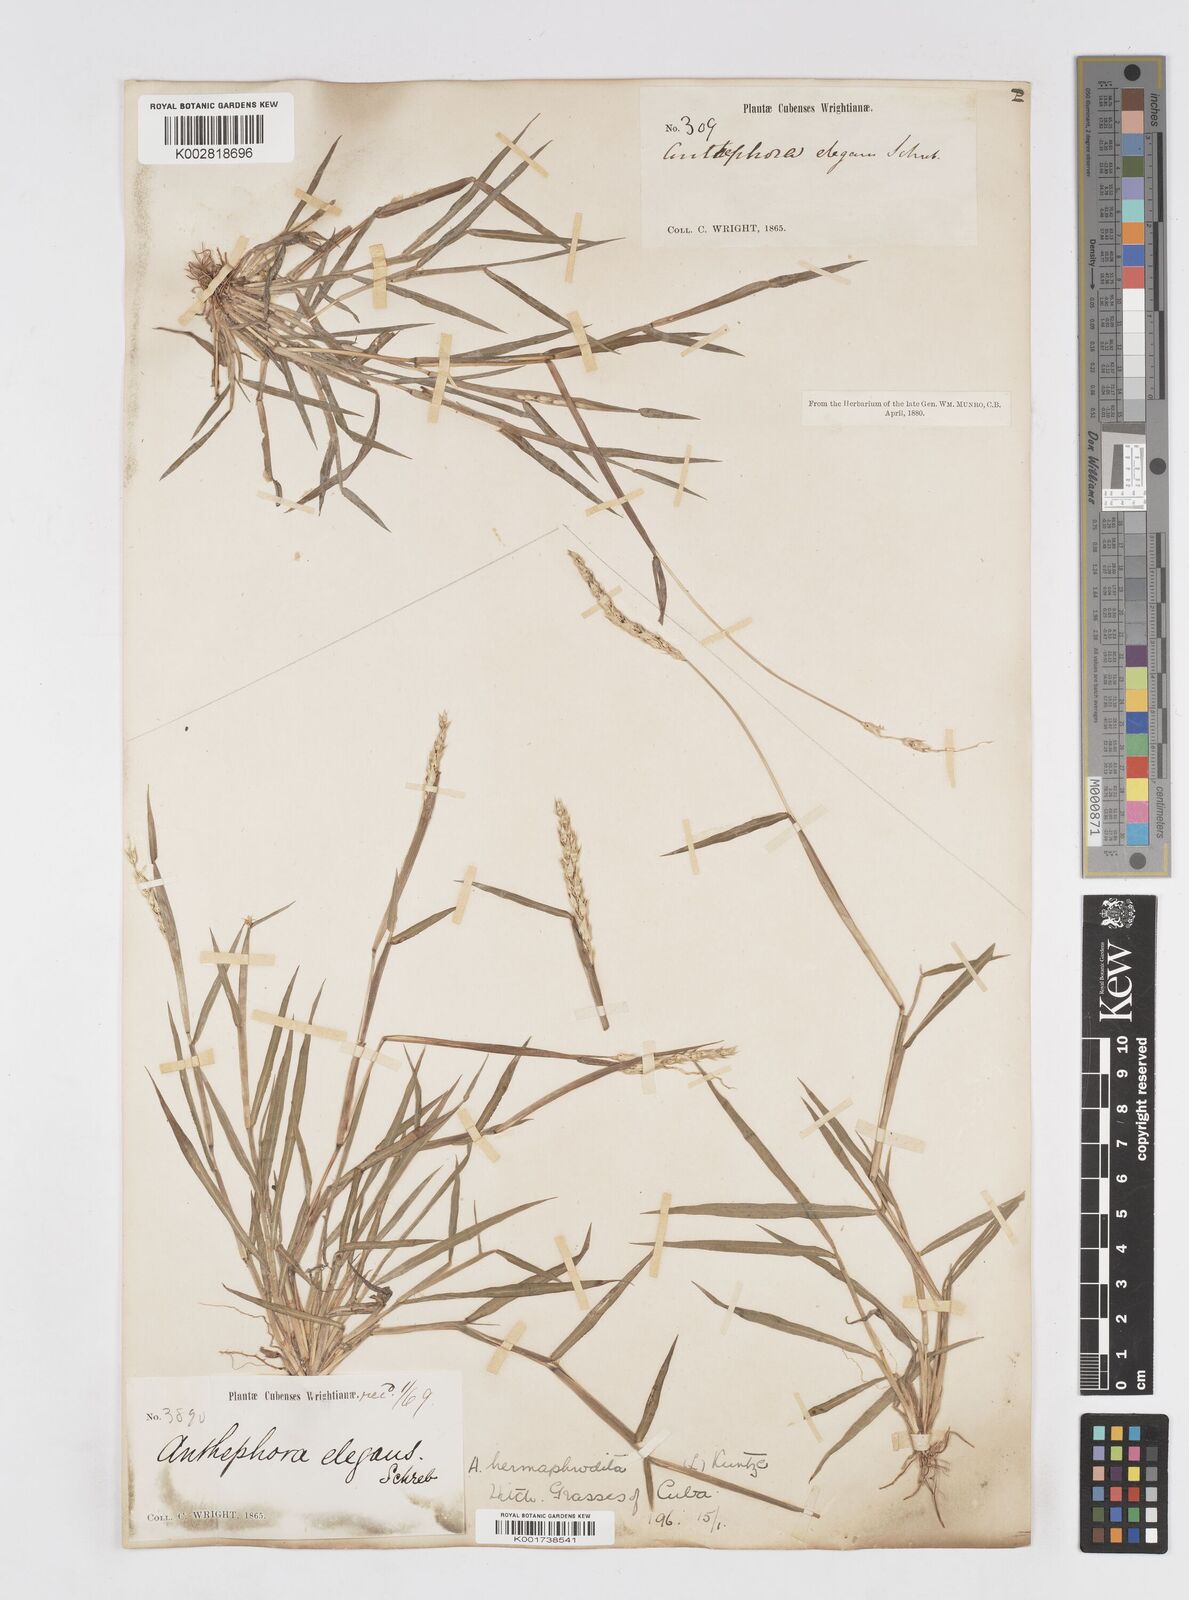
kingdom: Plantae
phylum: Tracheophyta
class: Liliopsida
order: Poales
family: Poaceae
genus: Anthephora
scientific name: Anthephora hermaphrodita
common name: Oldfield grass
